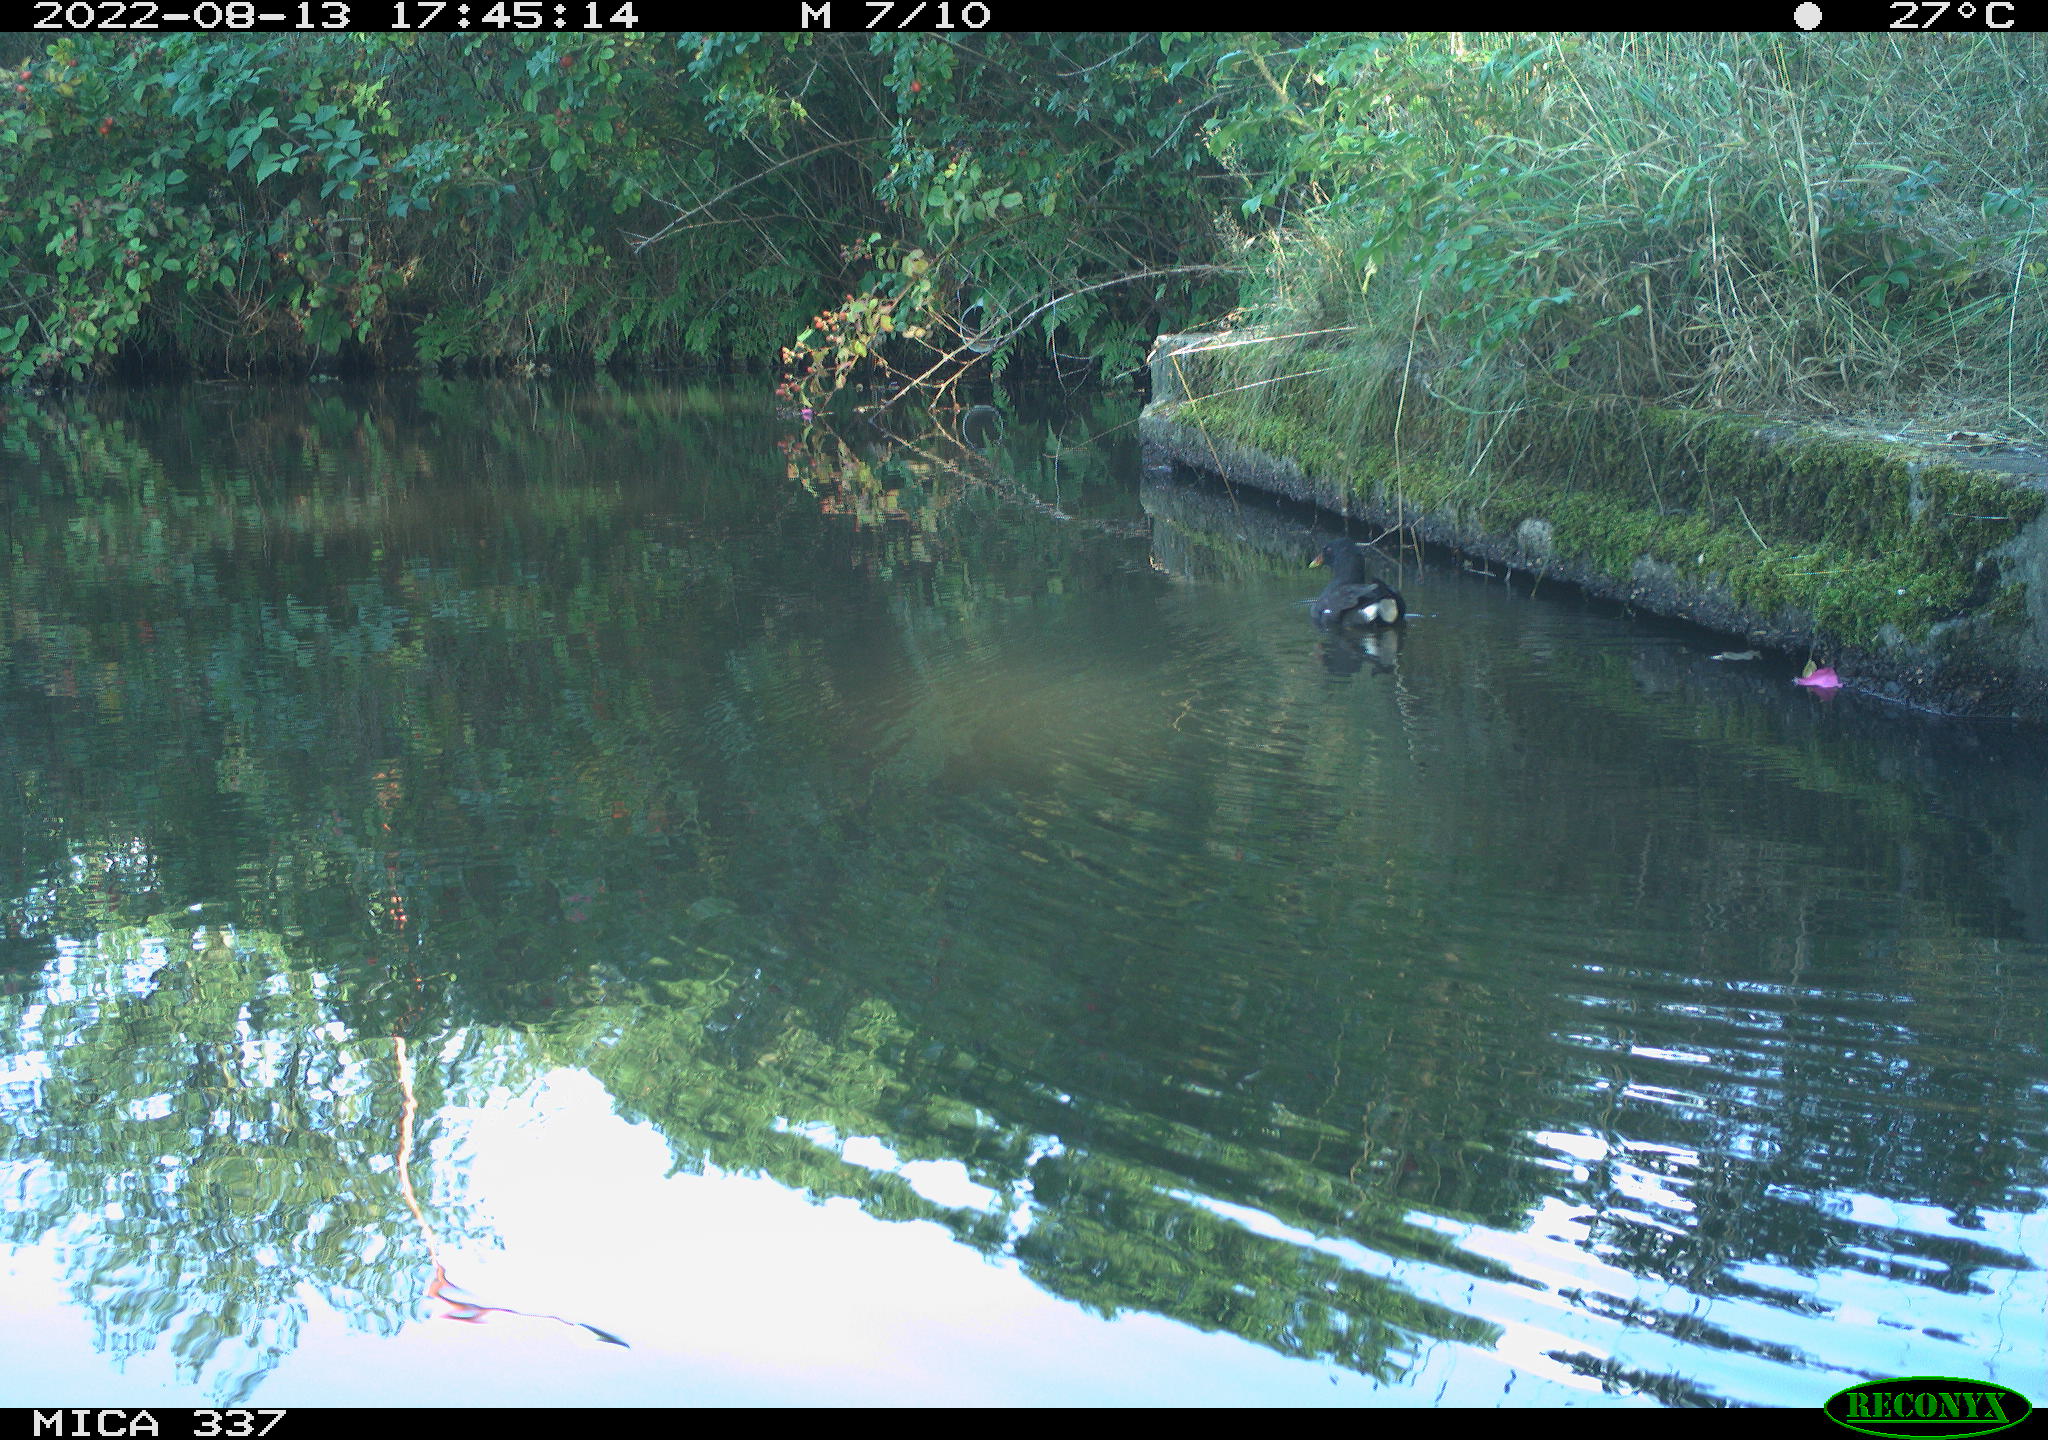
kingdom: Animalia
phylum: Chordata
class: Aves
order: Gruiformes
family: Rallidae
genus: Gallinula
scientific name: Gallinula chloropus
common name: Common moorhen
